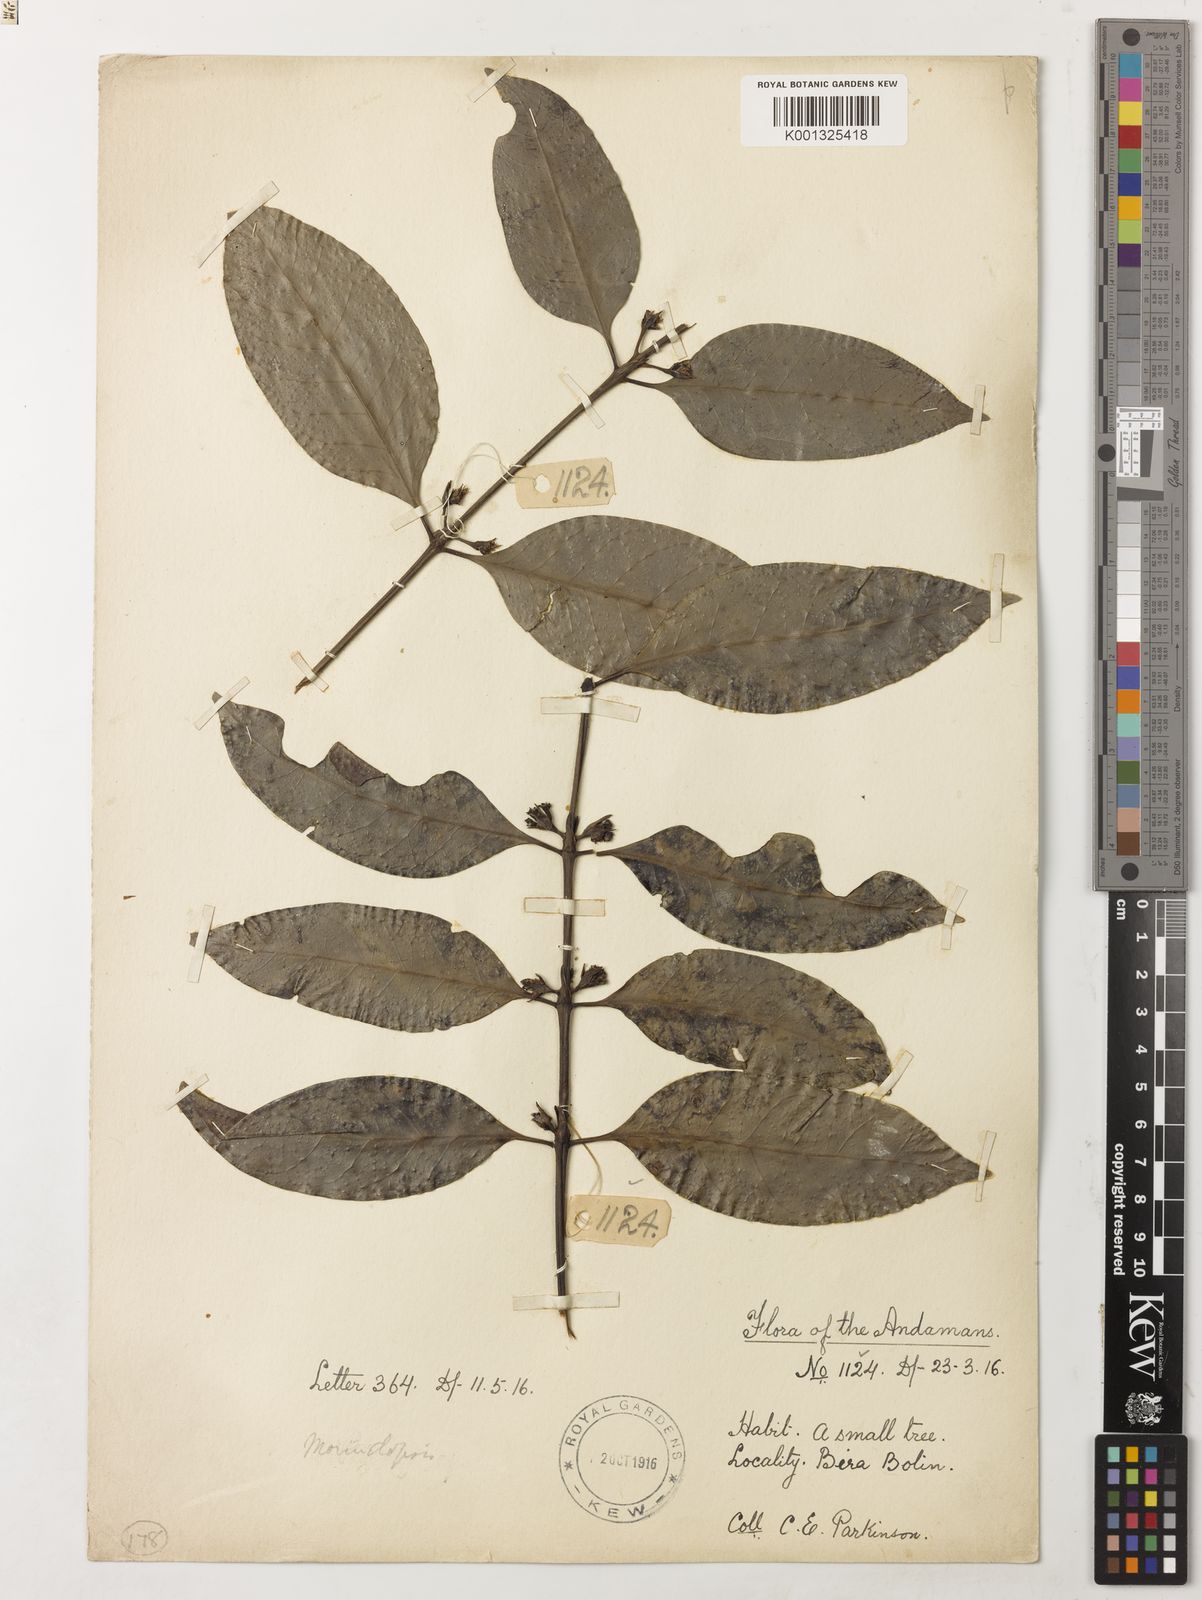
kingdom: Plantae
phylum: Tracheophyta
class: Magnoliopsida
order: Gentianales
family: Rubiaceae
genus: Morindopsis
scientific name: Morindopsis
